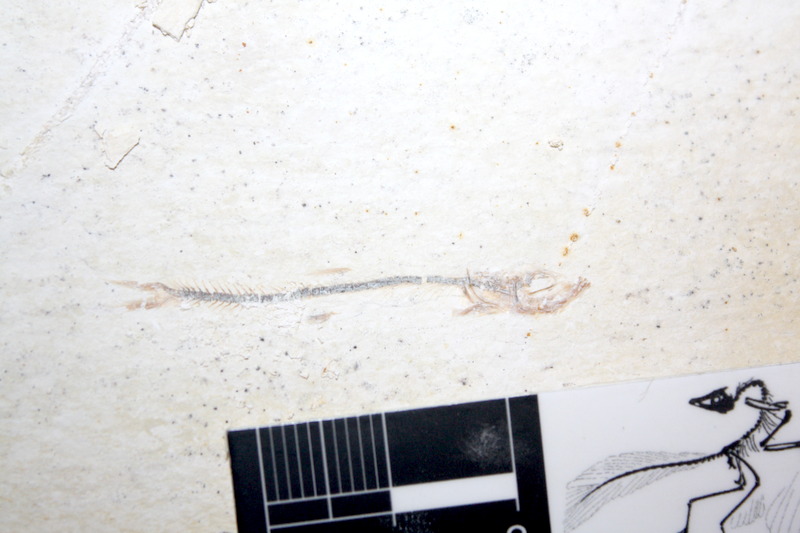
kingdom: Animalia
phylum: Chordata
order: Salmoniformes
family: Orthogonikleithridae
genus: Orthogonikleithrus
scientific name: Orthogonikleithrus hoelli
